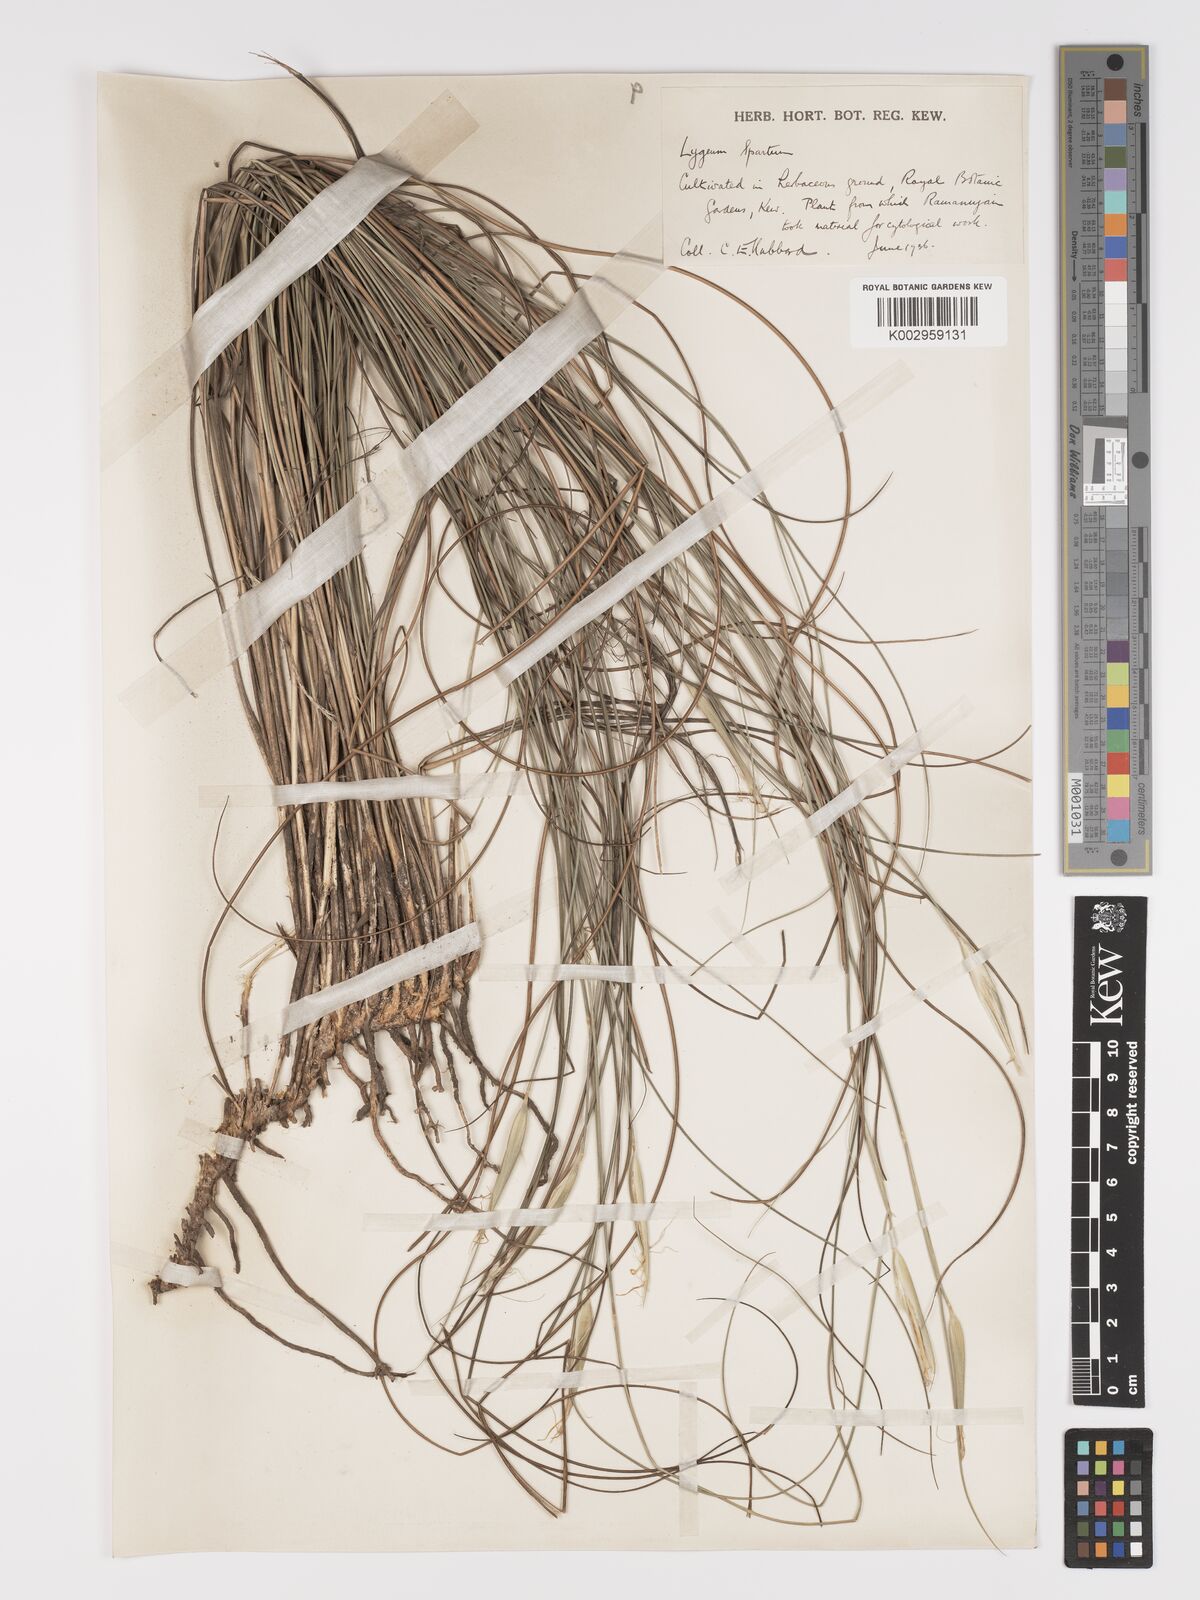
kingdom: Plantae
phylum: Tracheophyta
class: Liliopsida
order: Poales
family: Poaceae
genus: Lygeum
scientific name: Lygeum spartum
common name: Albardine
